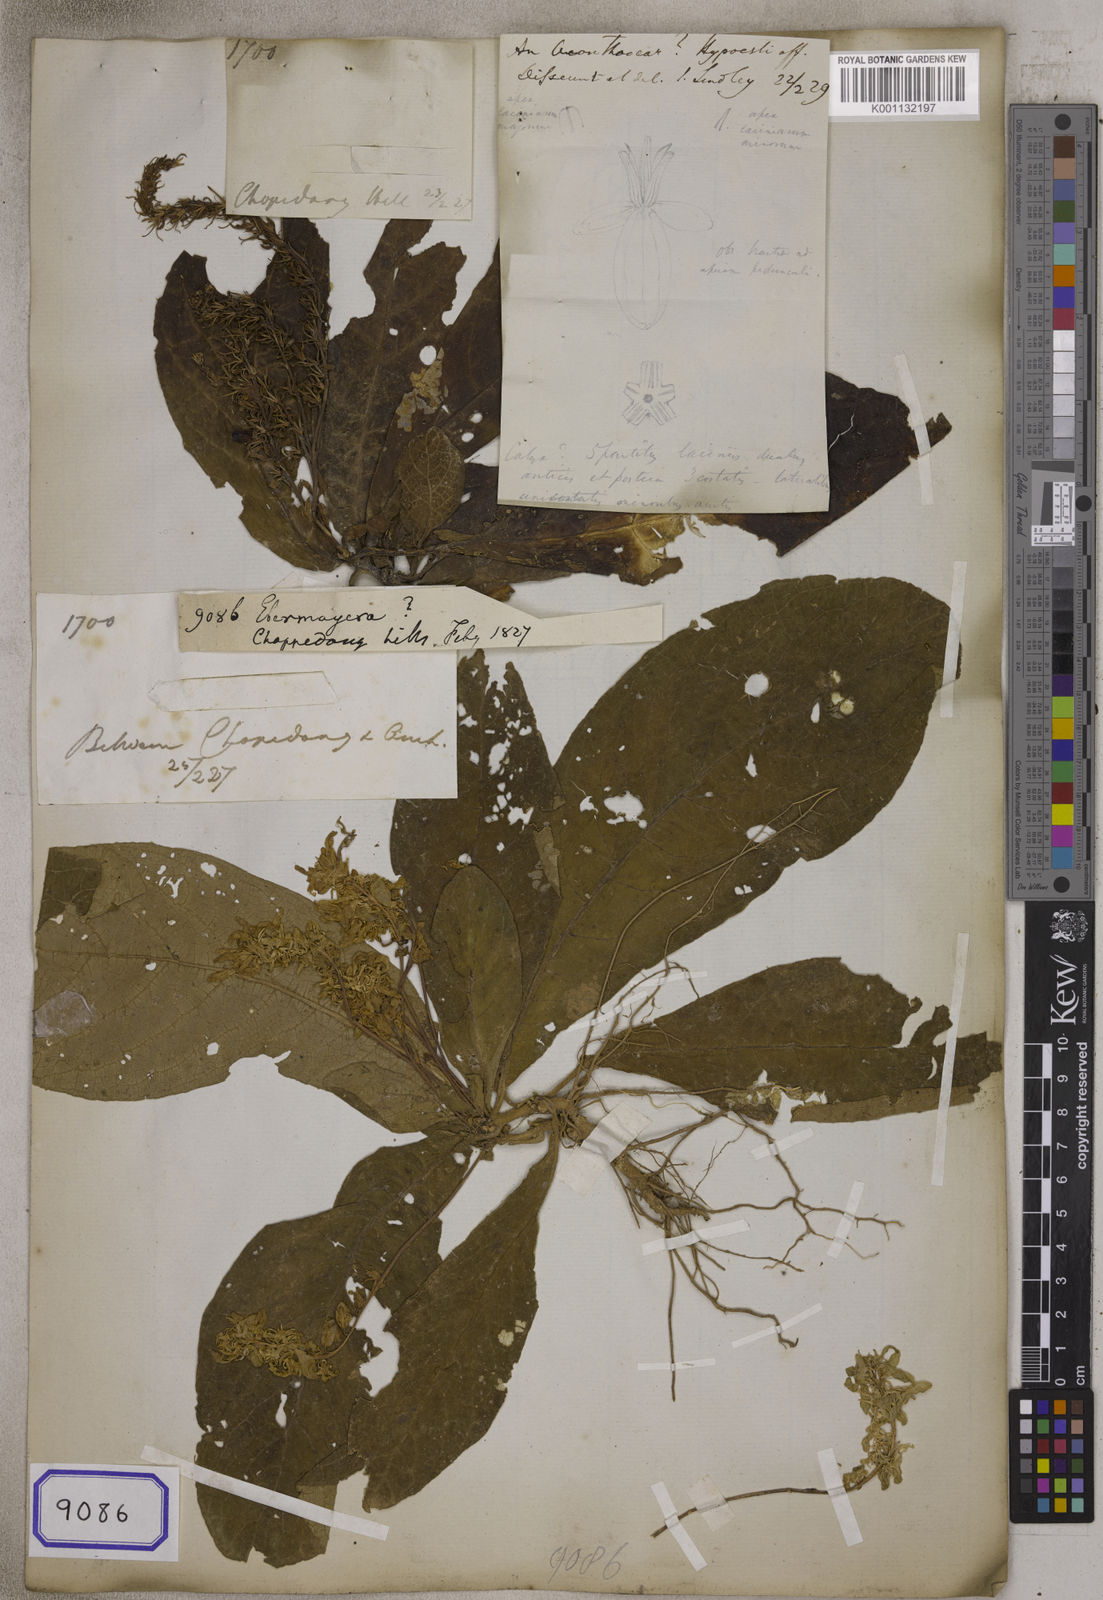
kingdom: Plantae
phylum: Tracheophyta
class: Magnoliopsida
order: Lamiales
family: Acanthaceae
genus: Staurogyne
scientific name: Staurogyne
